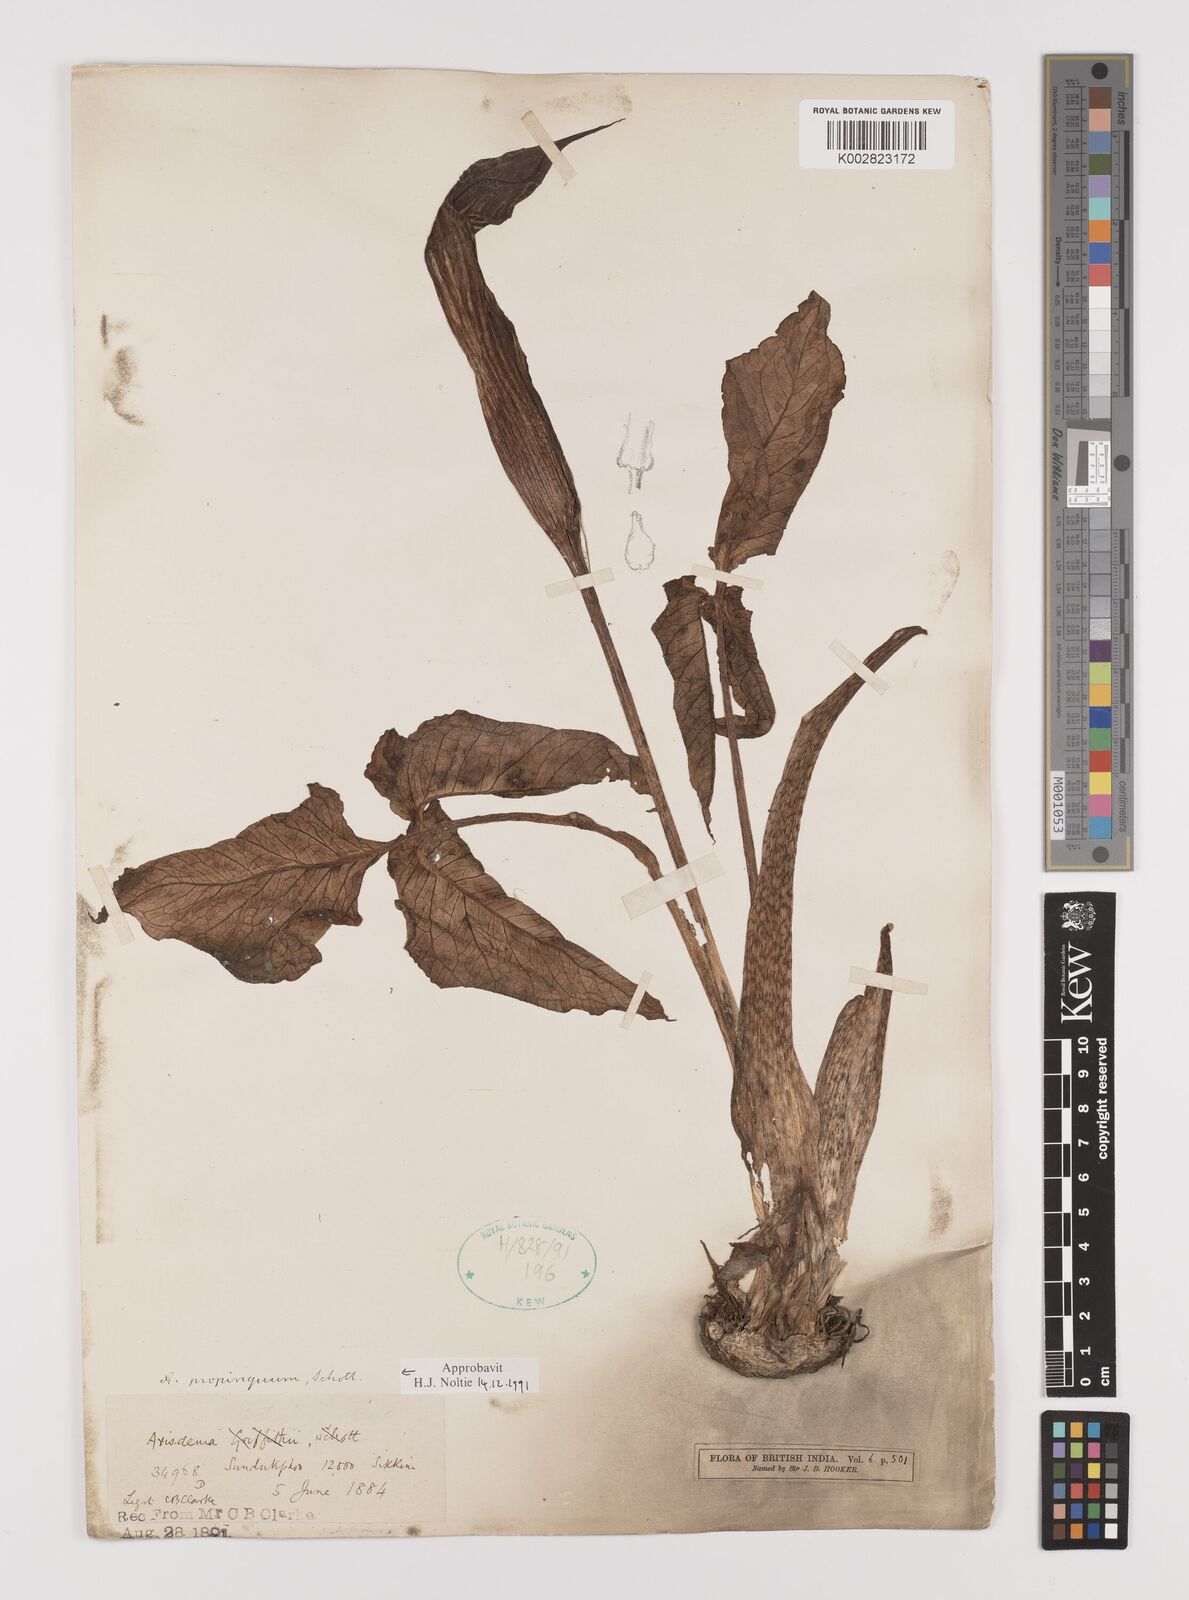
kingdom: Plantae
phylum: Tracheophyta
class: Liliopsida
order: Alismatales
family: Araceae
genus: Arisaema
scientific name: Arisaema propinquum
